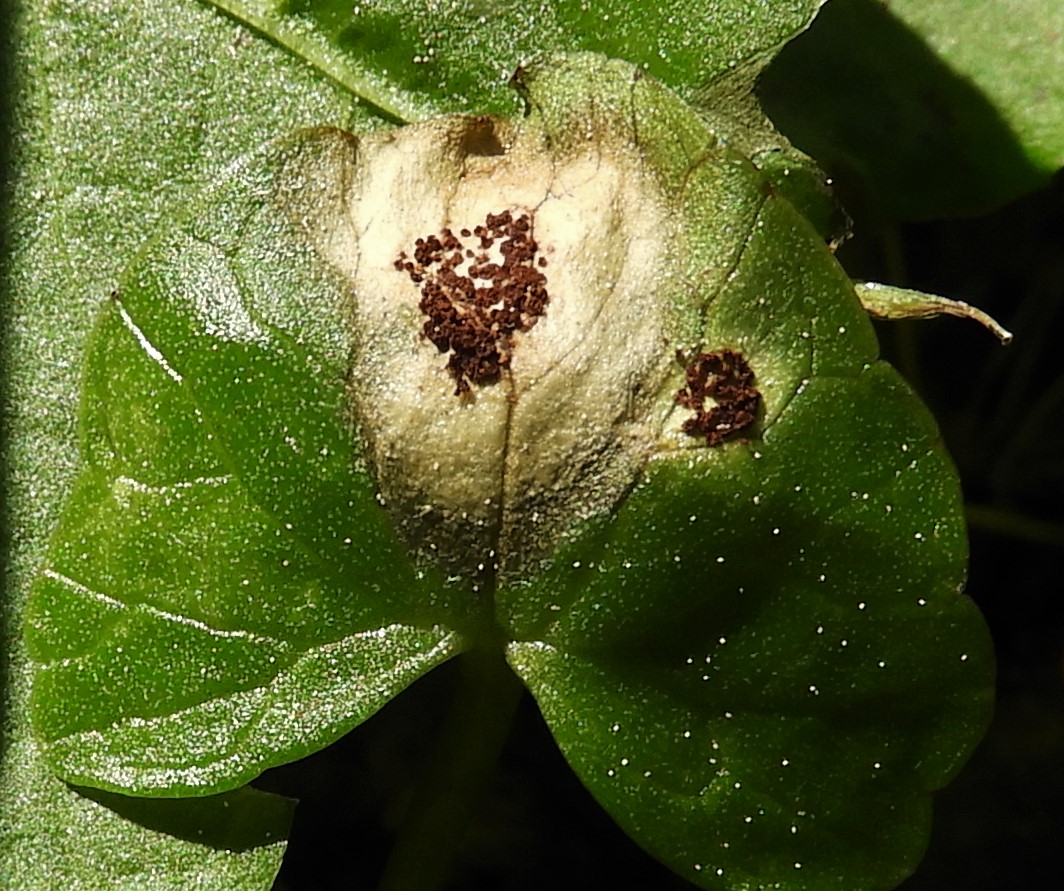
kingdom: Fungi
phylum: Basidiomycota
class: Pucciniomycetes
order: Pucciniales
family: Pucciniaceae
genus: Uromyces
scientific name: Uromyces ficariae
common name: vorterod-encellerust
